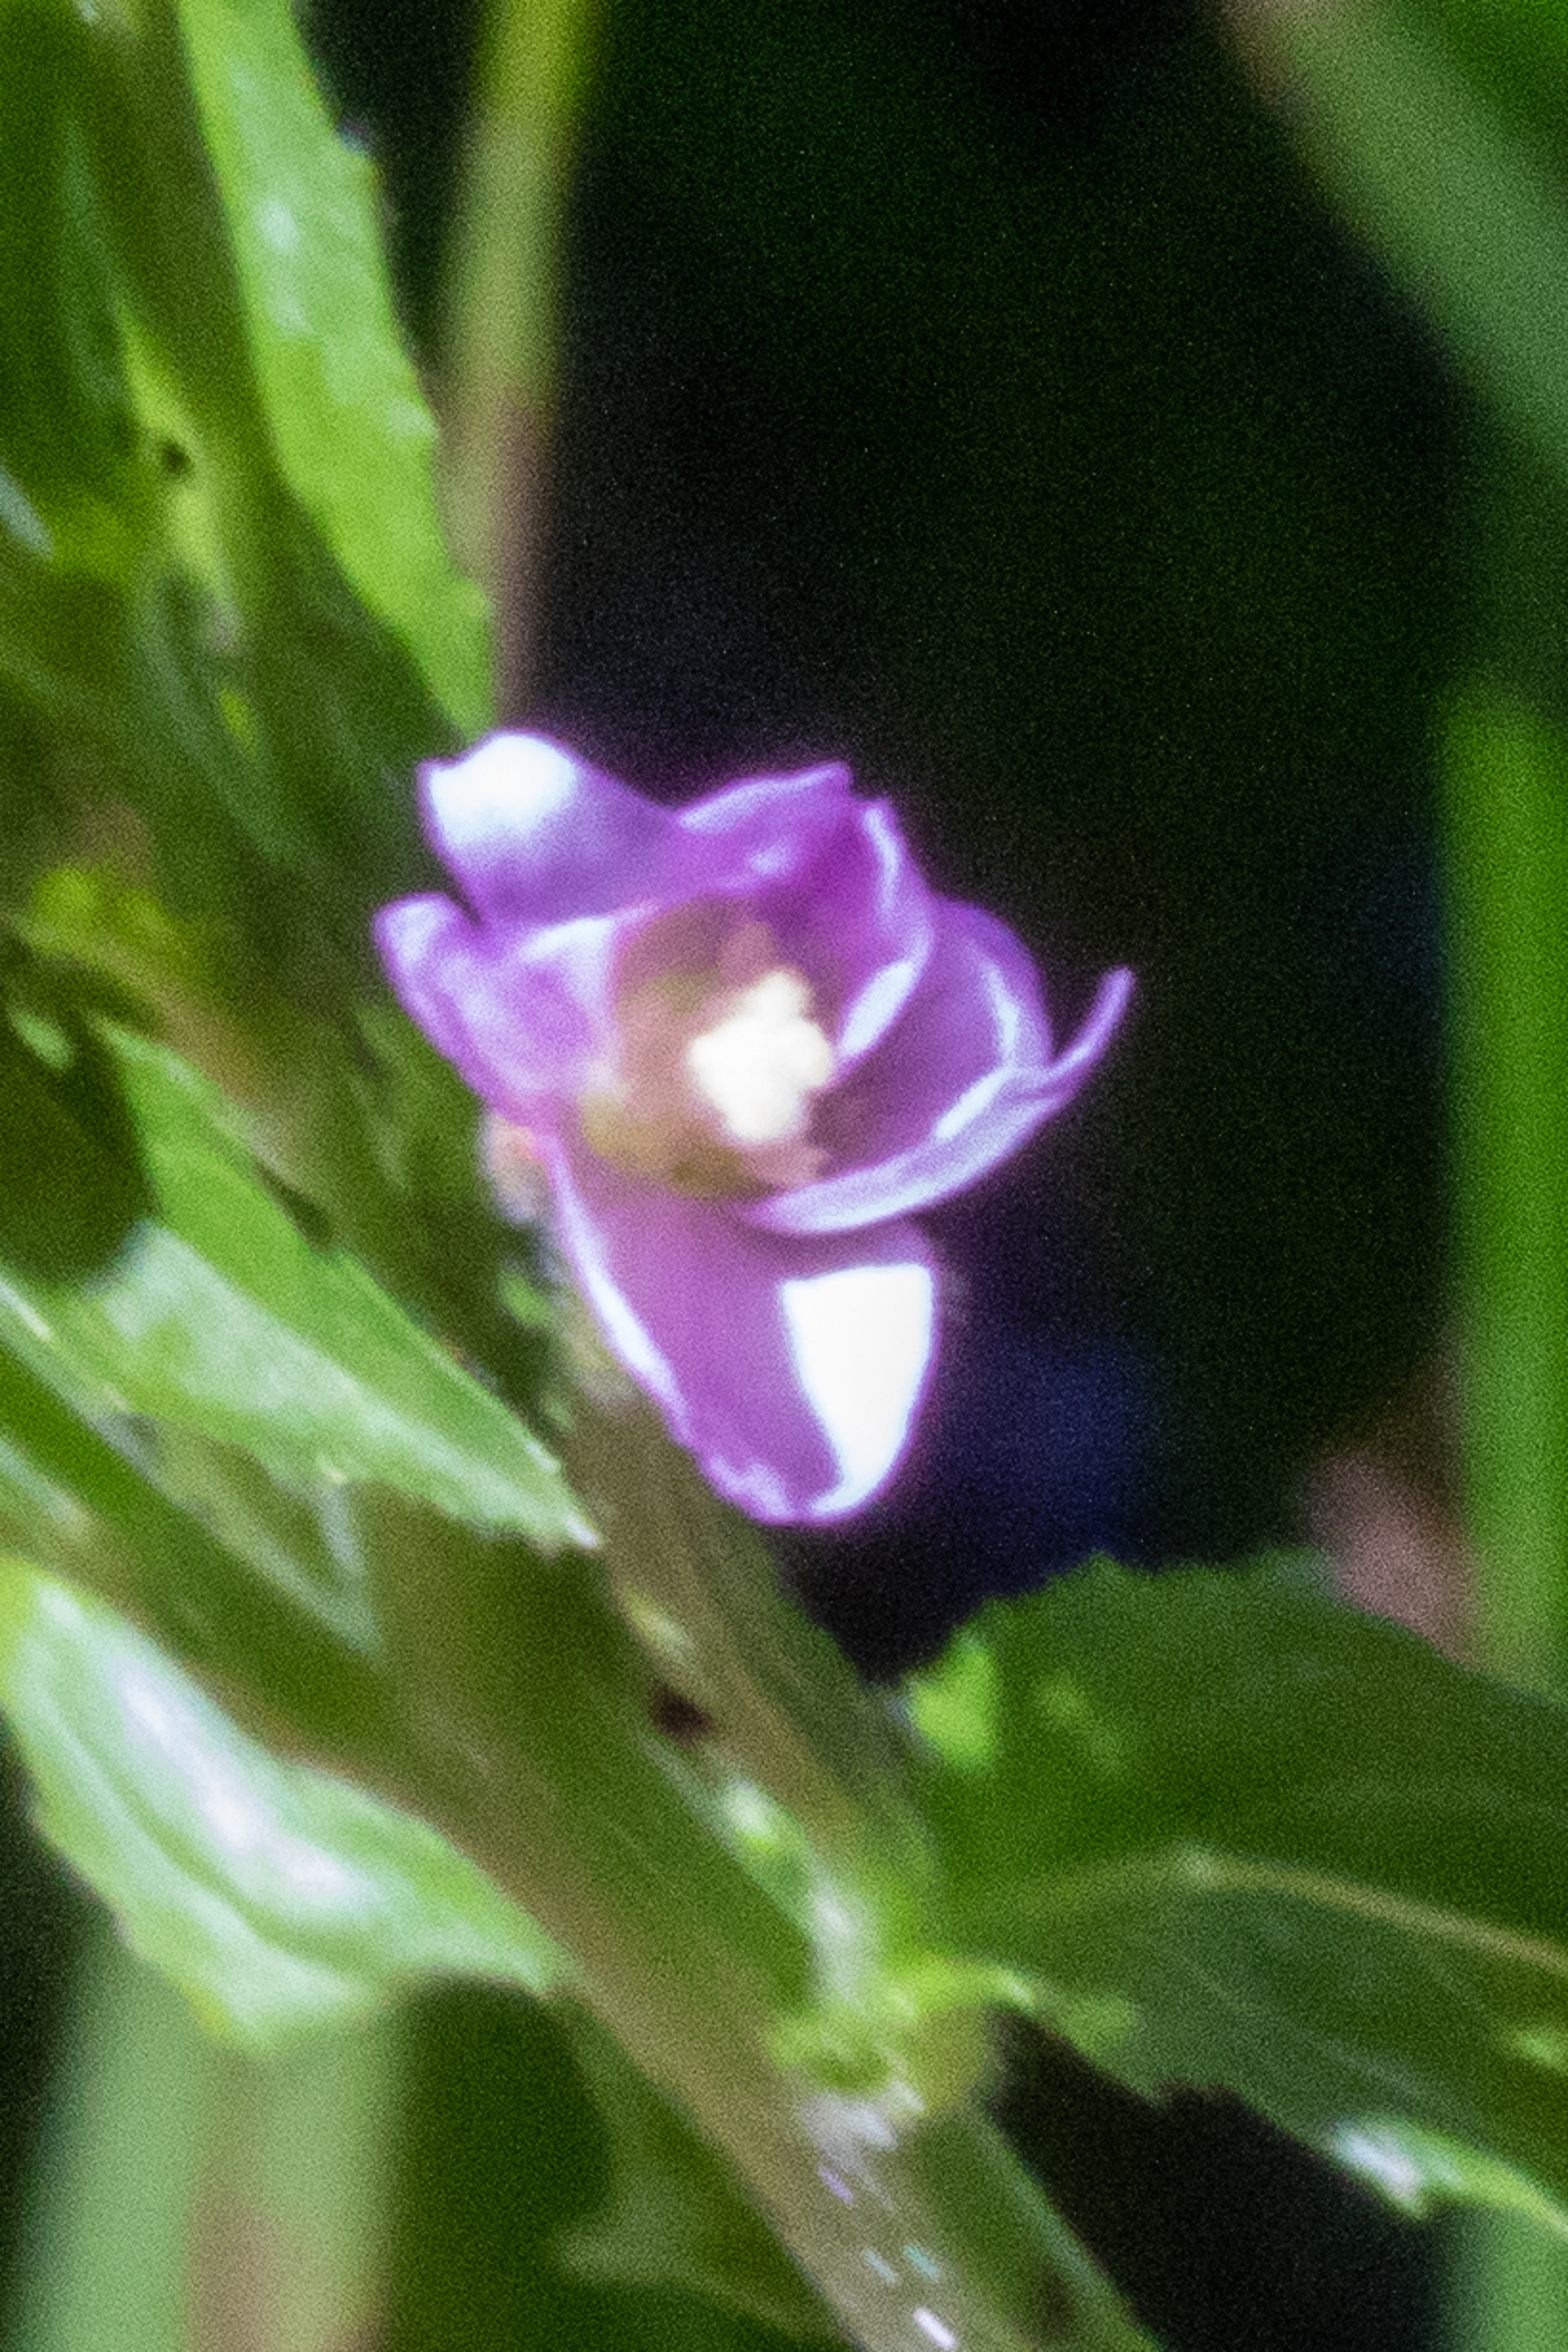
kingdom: Plantae
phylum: Tracheophyta
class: Magnoliopsida
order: Myrtales
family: Onagraceae
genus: Epilobium
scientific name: Epilobium parviflorum
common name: Dunet dueurt
